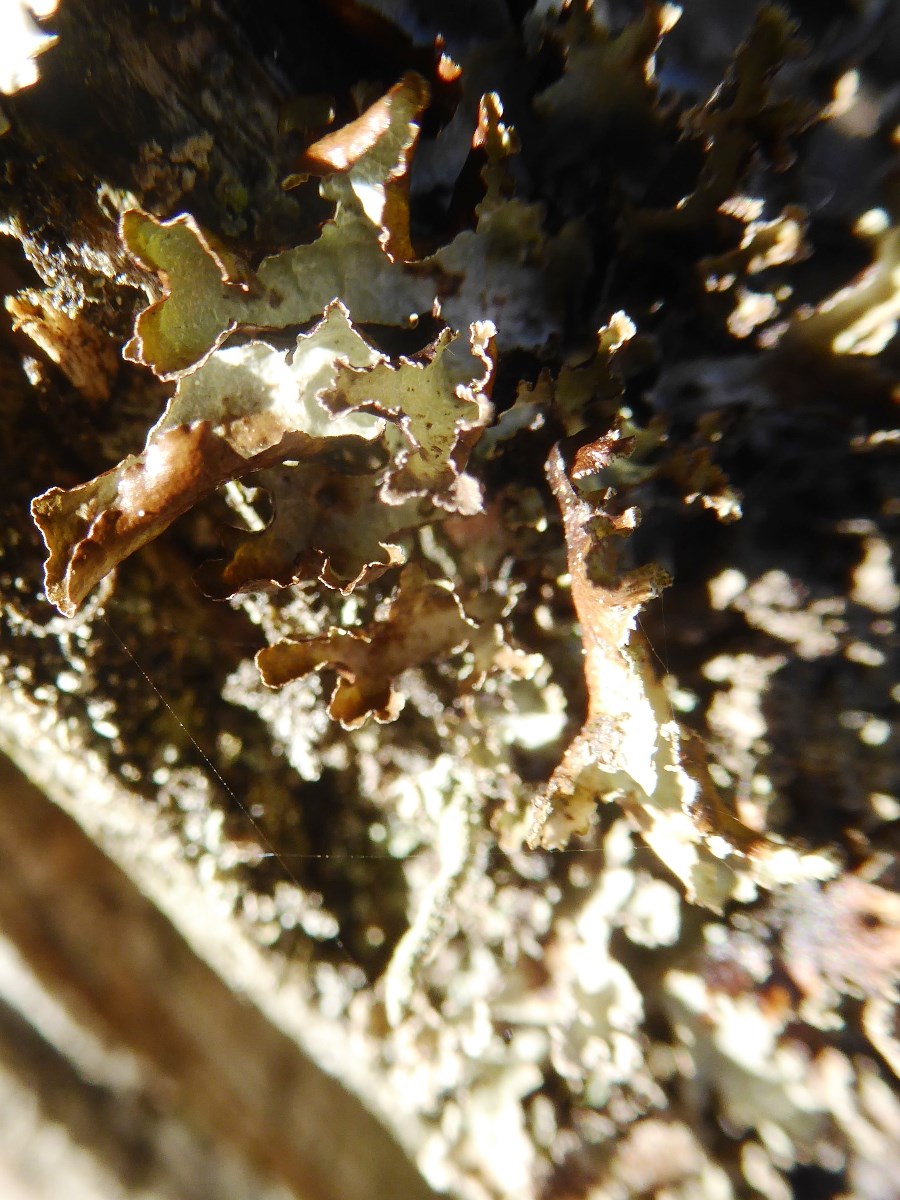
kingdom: Fungi
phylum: Ascomycota
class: Lecanoromycetes
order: Lecanorales
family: Parmeliaceae
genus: Platismatia
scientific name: Platismatia glauca
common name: blågrå papirlav
